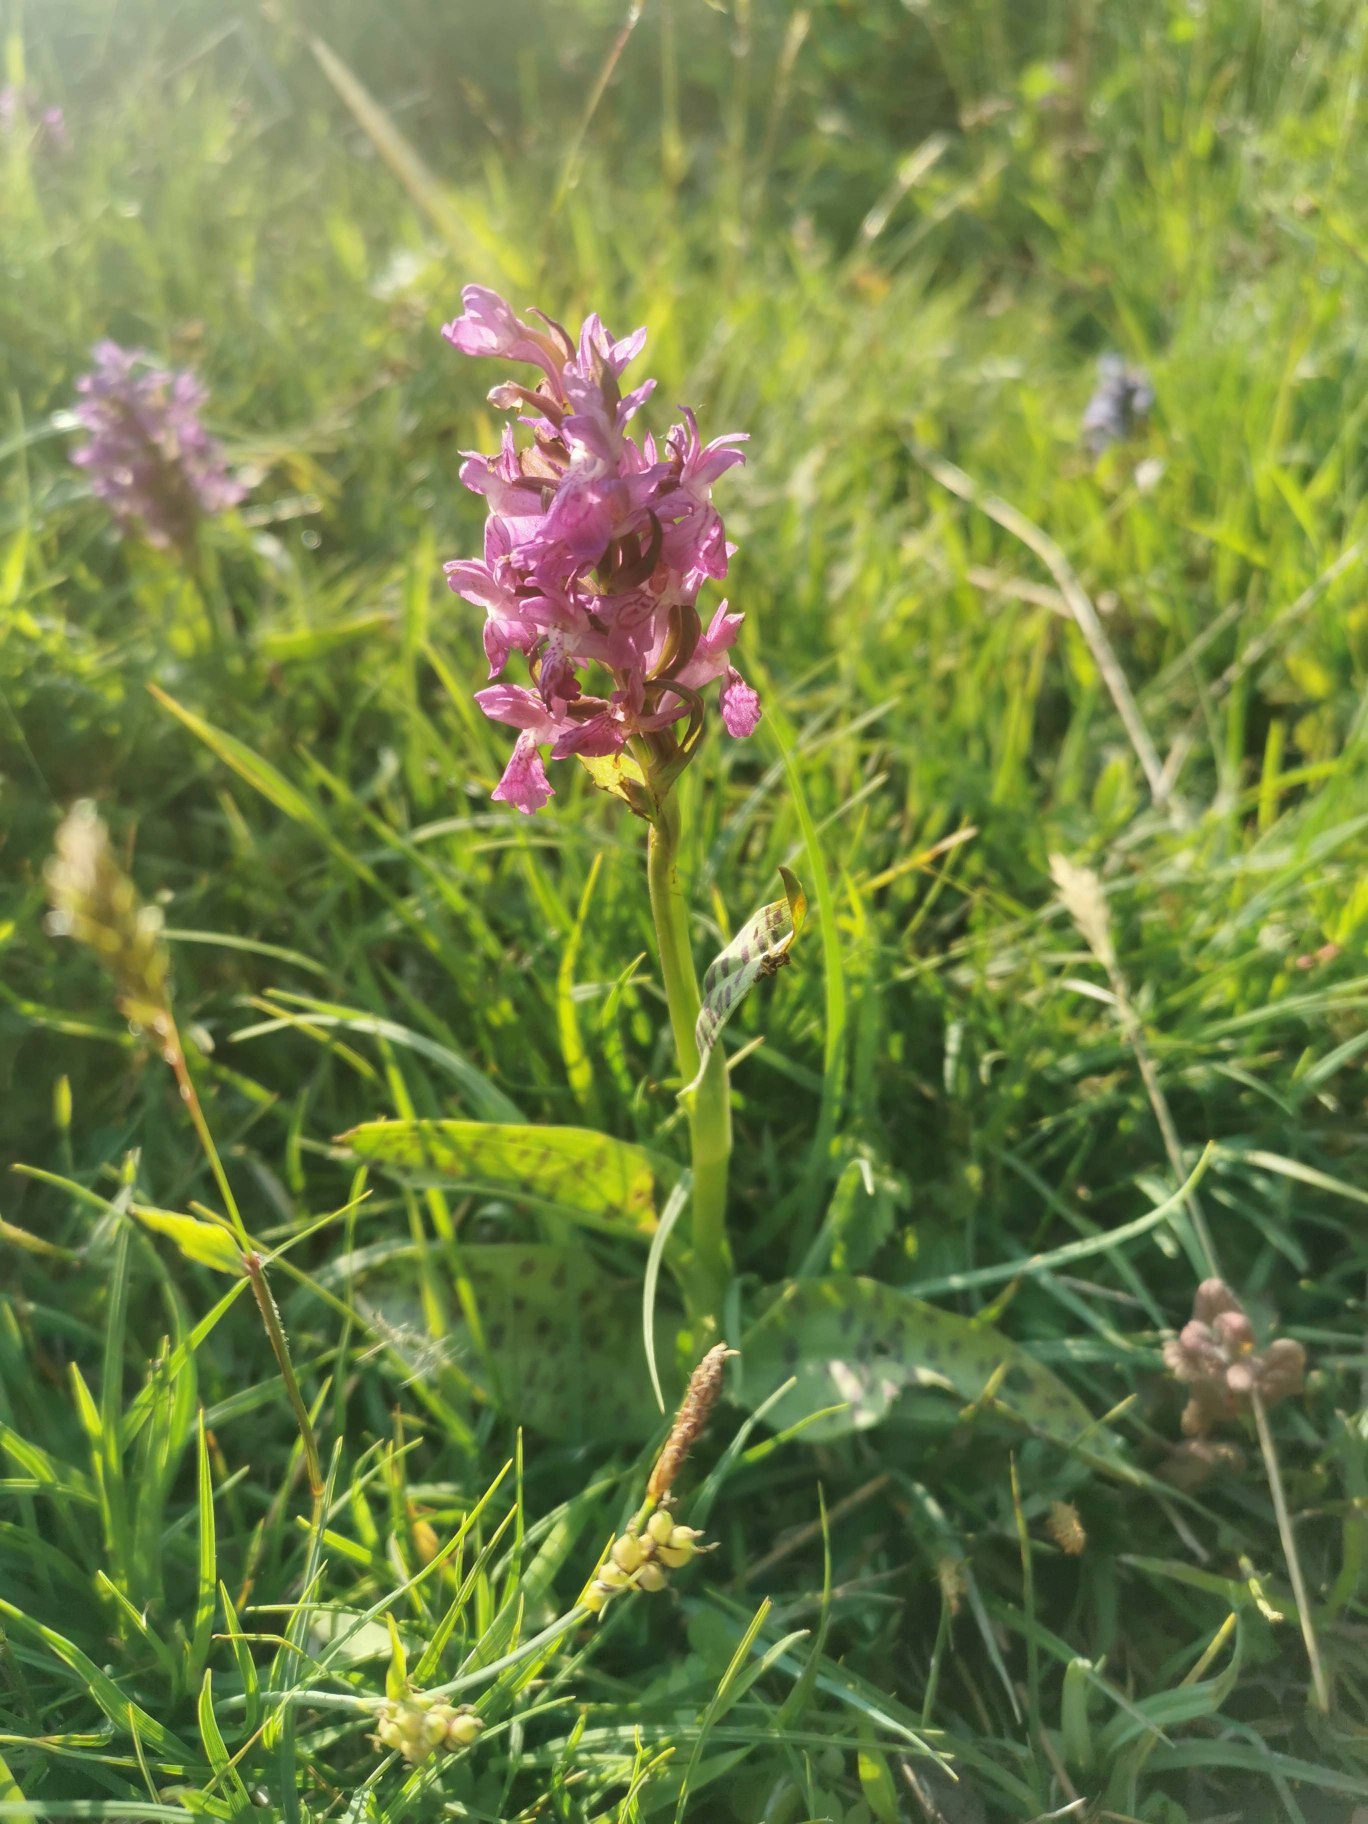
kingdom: Plantae
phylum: Tracheophyta
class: Liliopsida
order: Asparagales
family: Orchidaceae
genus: Dactylorhiza
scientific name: Dactylorhiza majalis
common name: Maj-gøgeurt
